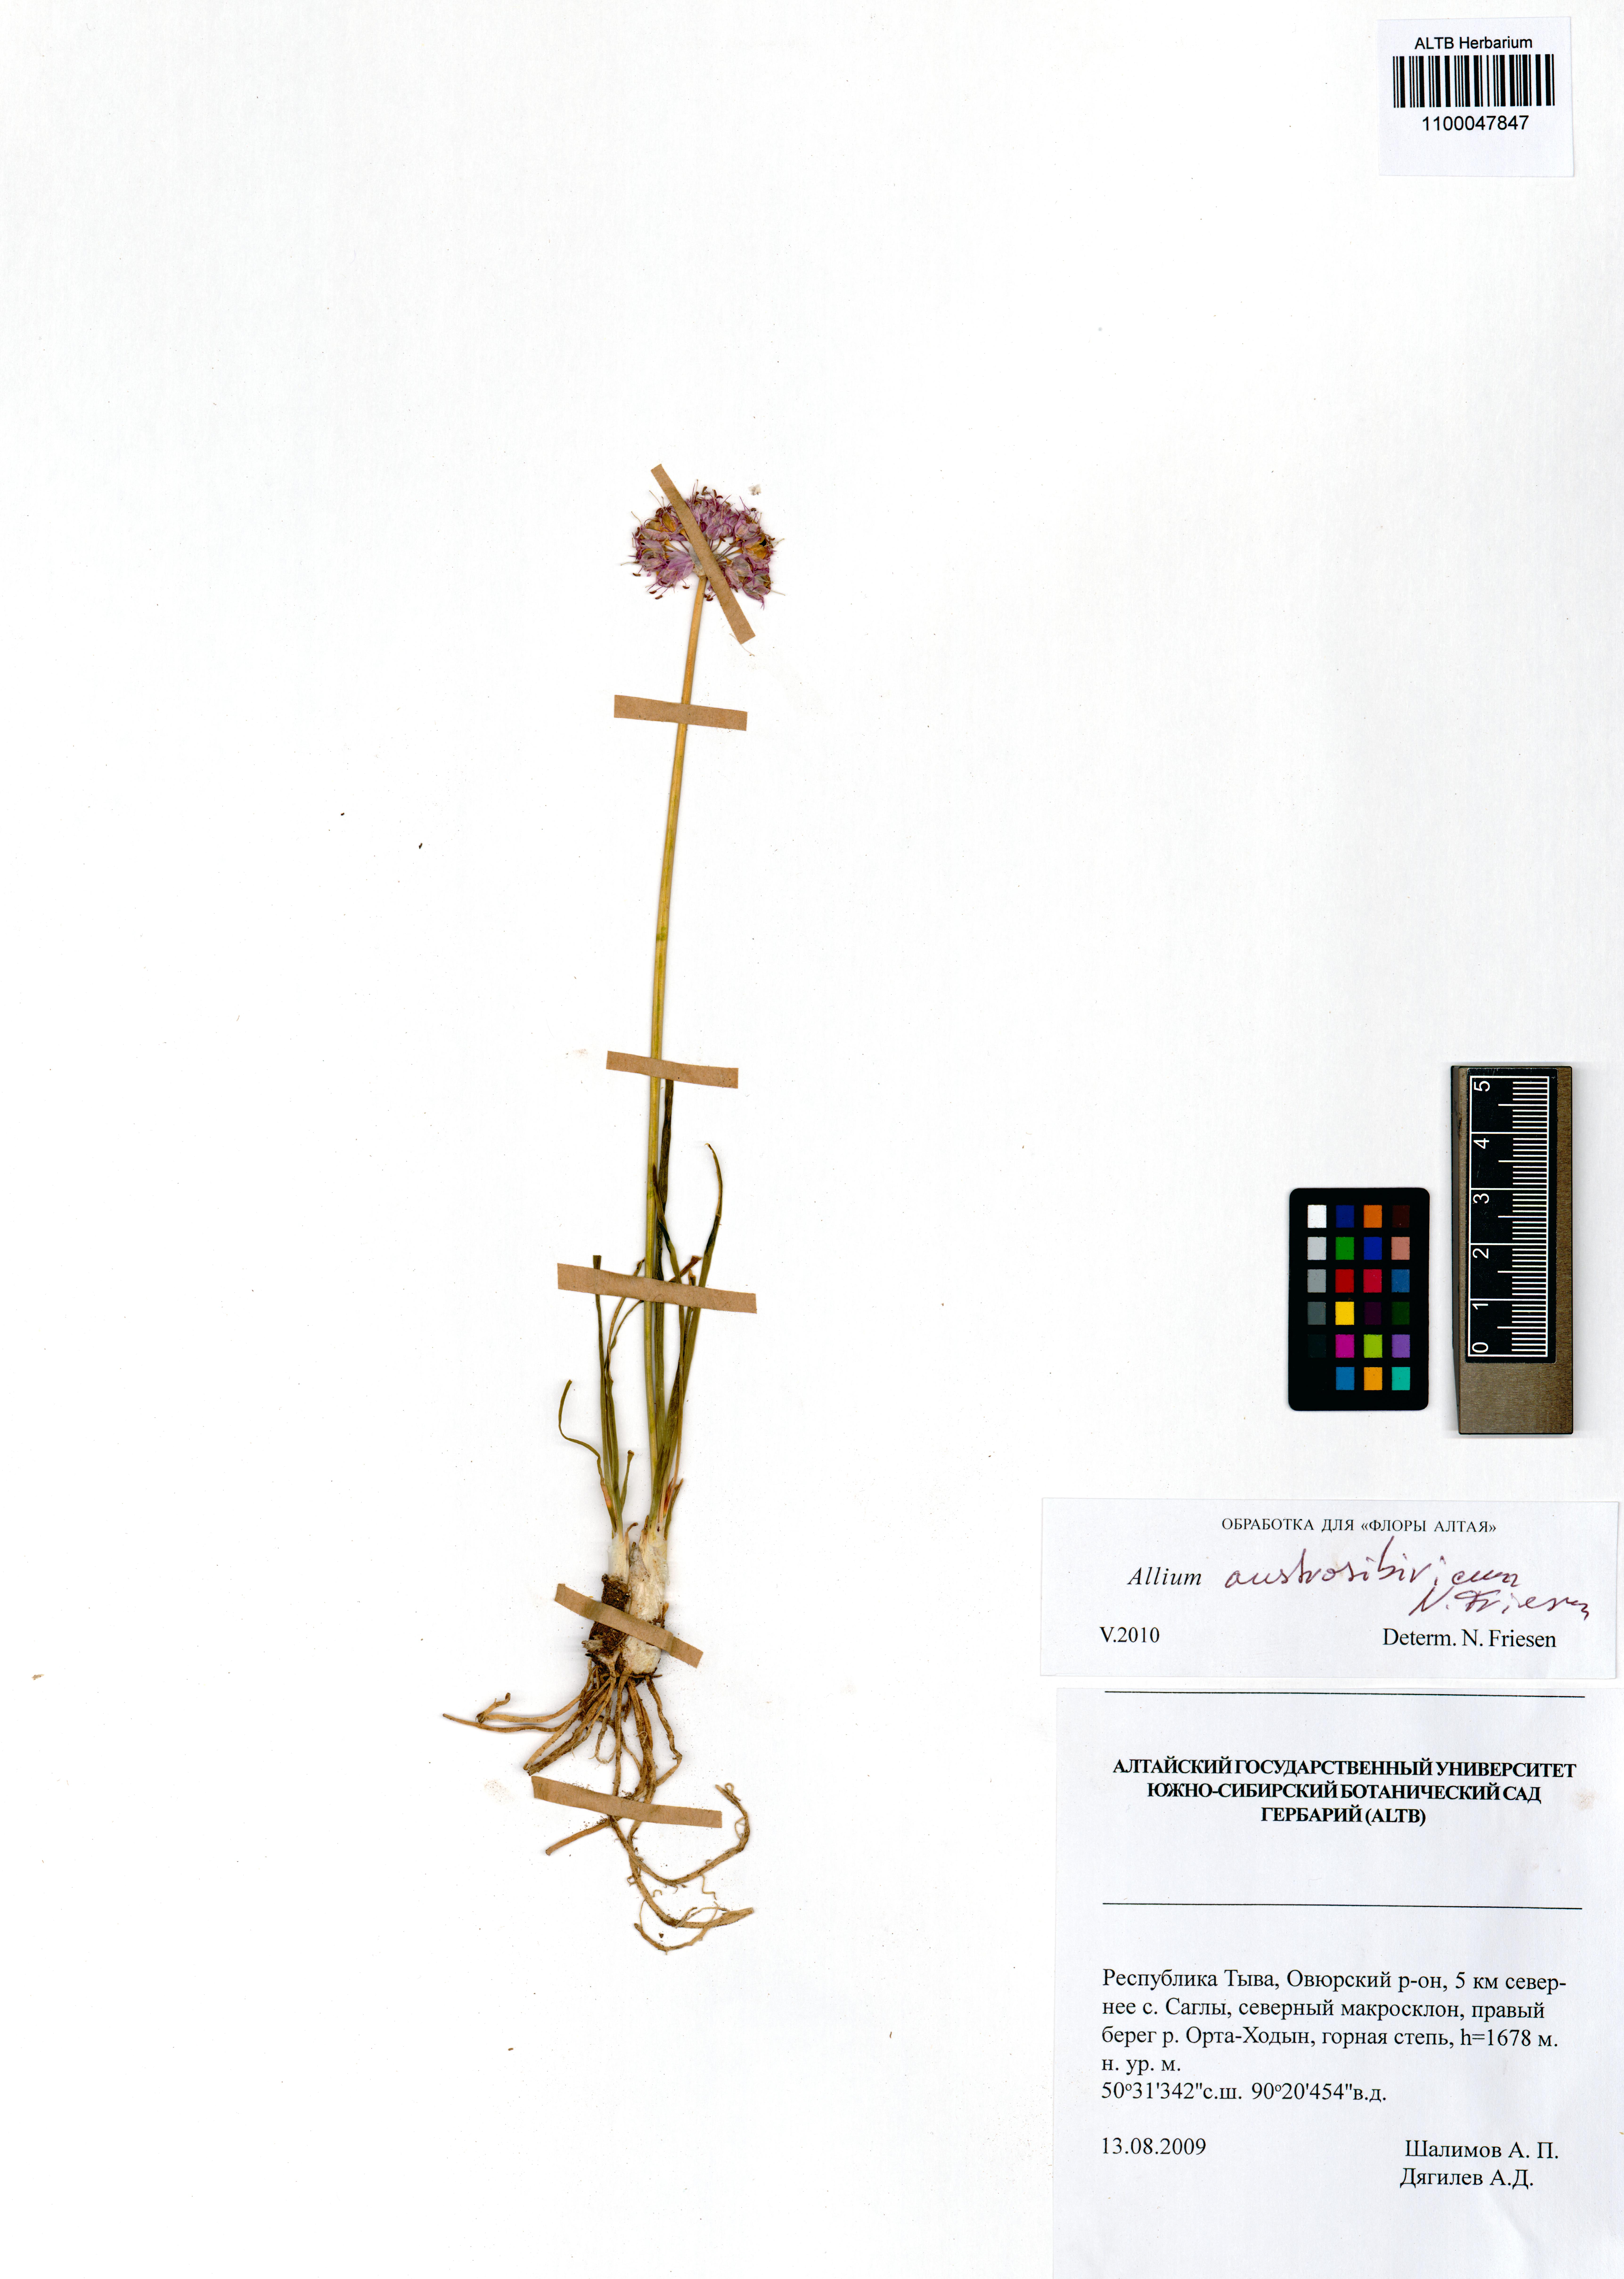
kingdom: Plantae
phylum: Tracheophyta
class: Liliopsida
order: Asparagales
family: Amaryllidaceae
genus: Allium
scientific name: Allium austrosibiricum
